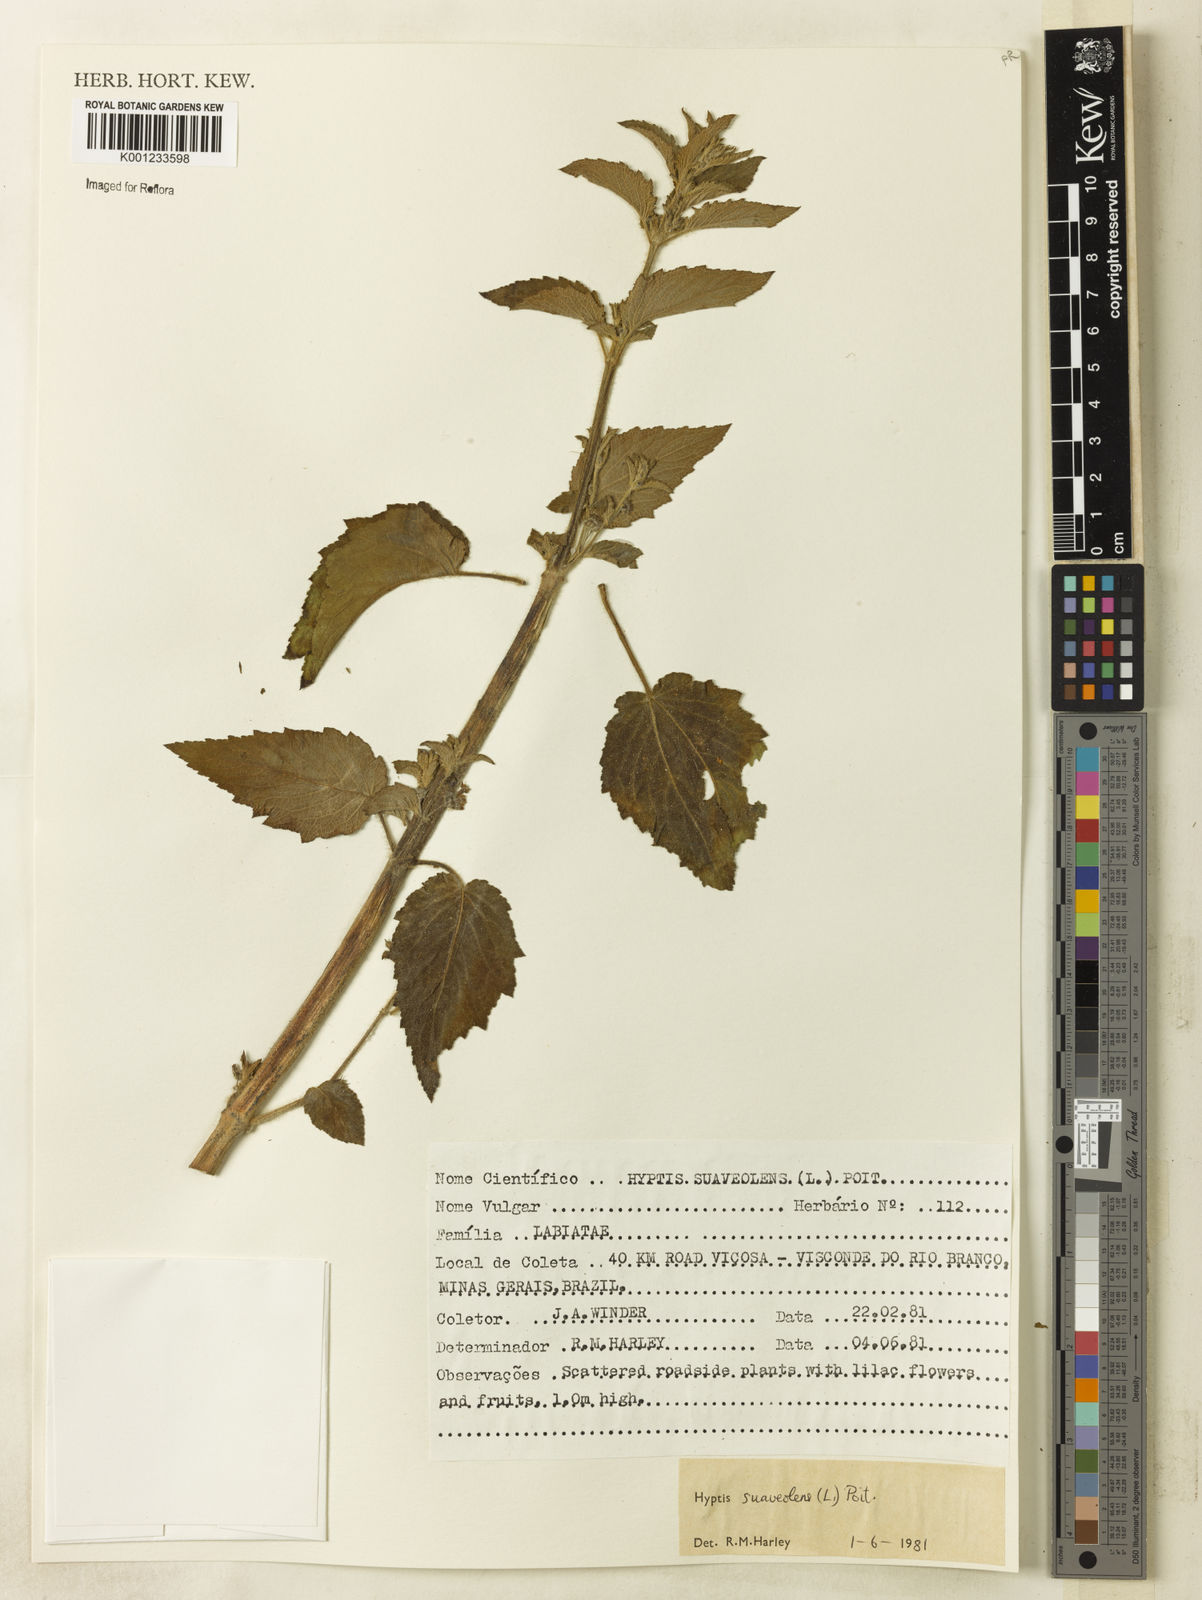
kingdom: Plantae
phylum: Tracheophyta
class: Magnoliopsida
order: Lamiales
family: Lamiaceae
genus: Mesosphaerum
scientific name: Mesosphaerum suaveolens
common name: Pignut
